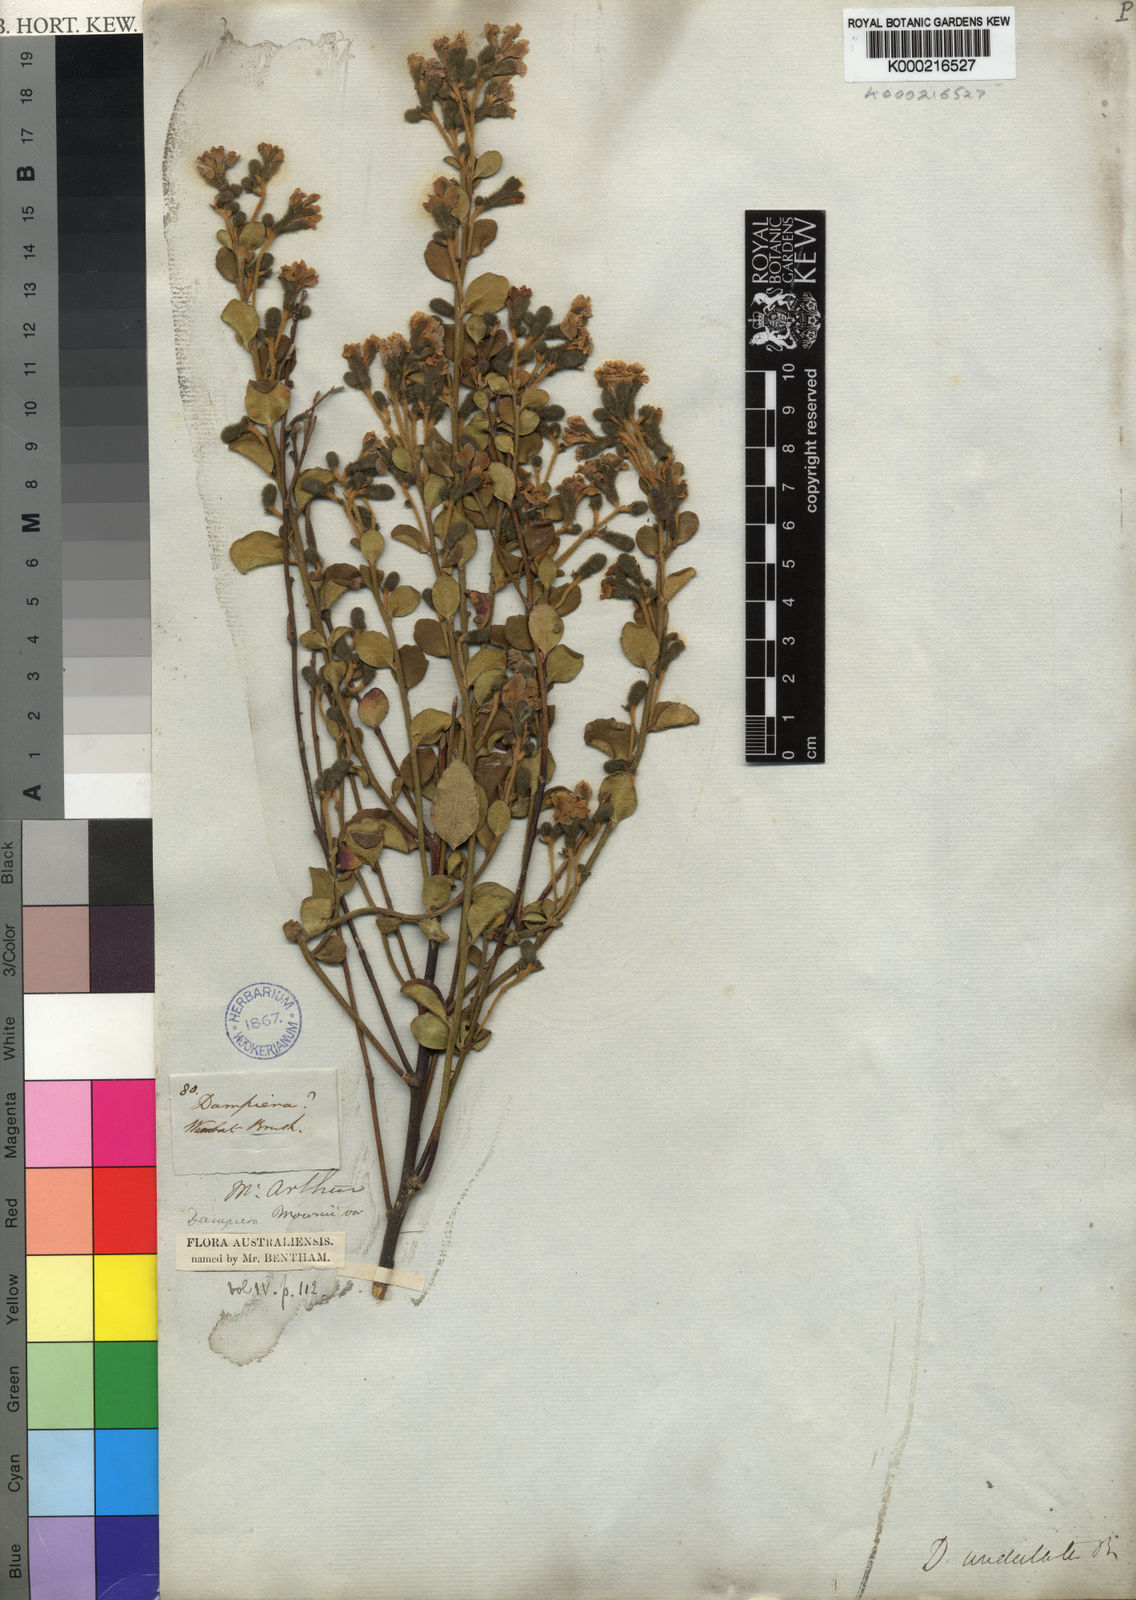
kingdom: Plantae
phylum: Tracheophyta
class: Magnoliopsida
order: Asterales
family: Goodeniaceae
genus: Dampiera
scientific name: Dampiera purpurea
